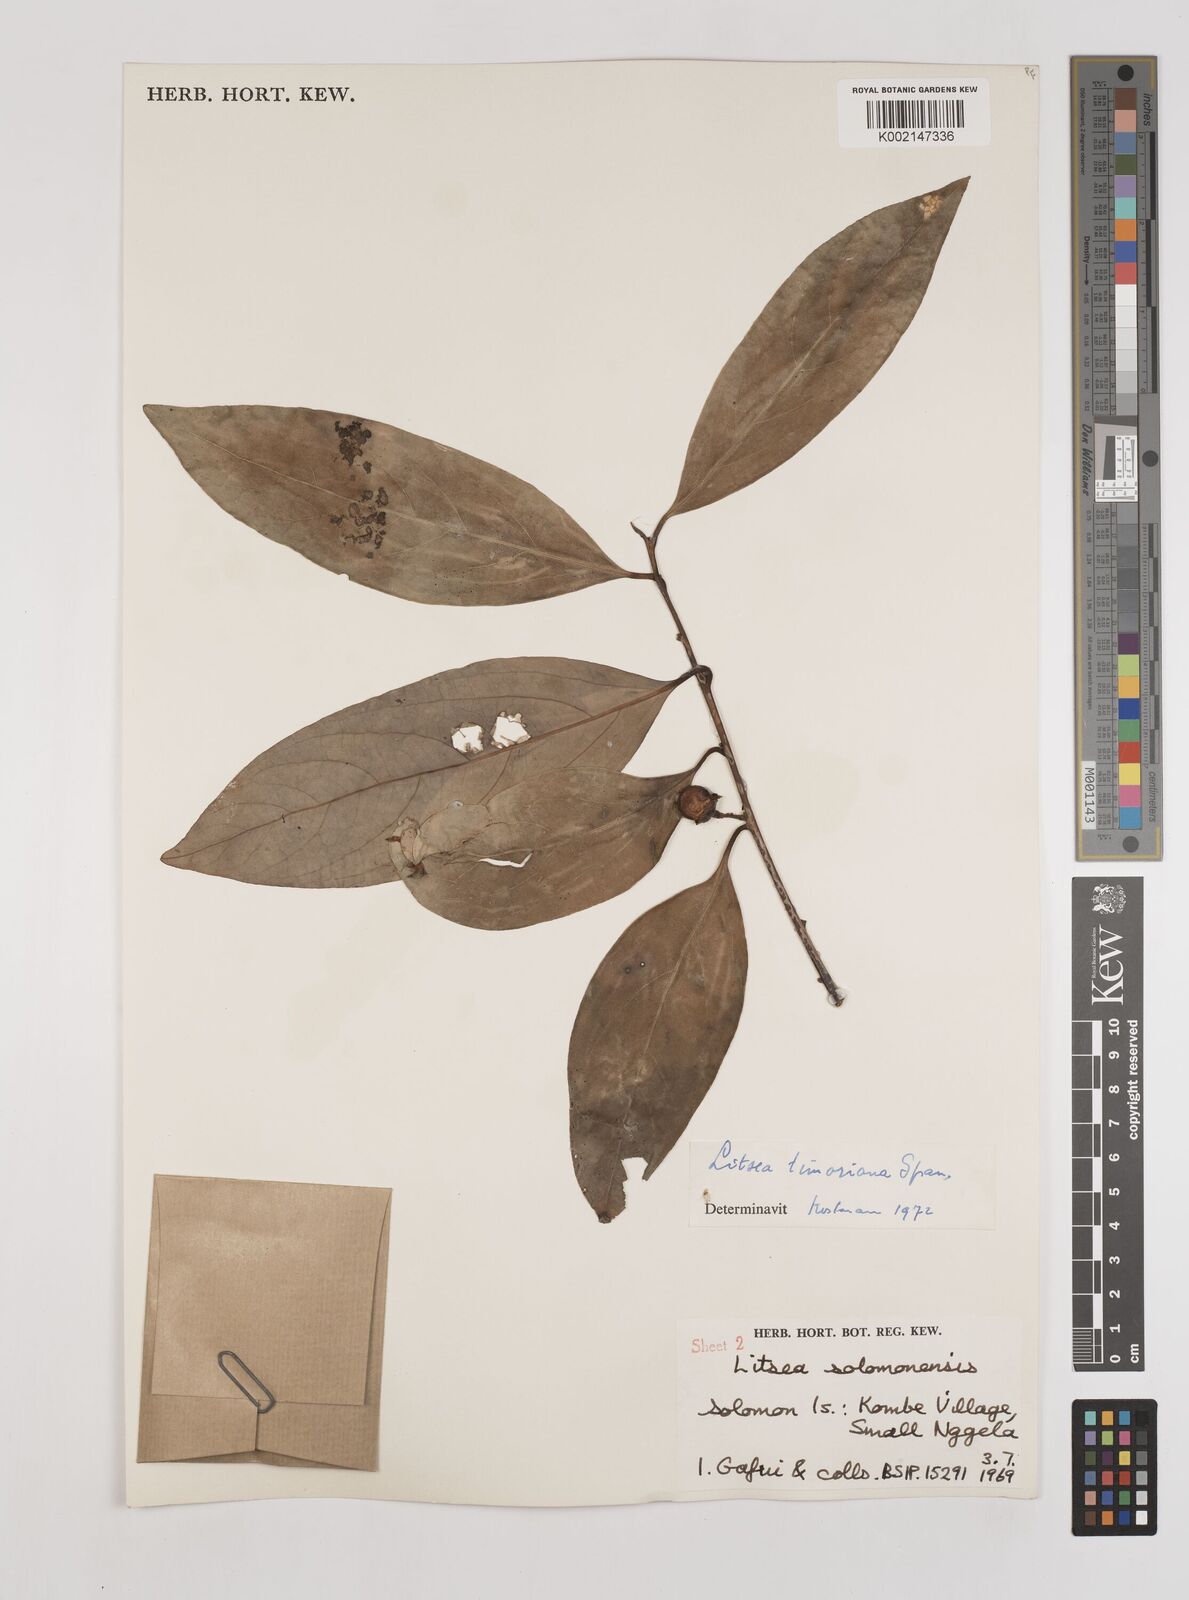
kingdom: Plantae
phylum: Tracheophyta
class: Magnoliopsida
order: Laurales
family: Lauraceae
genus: Litsea
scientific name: Litsea timoriana
